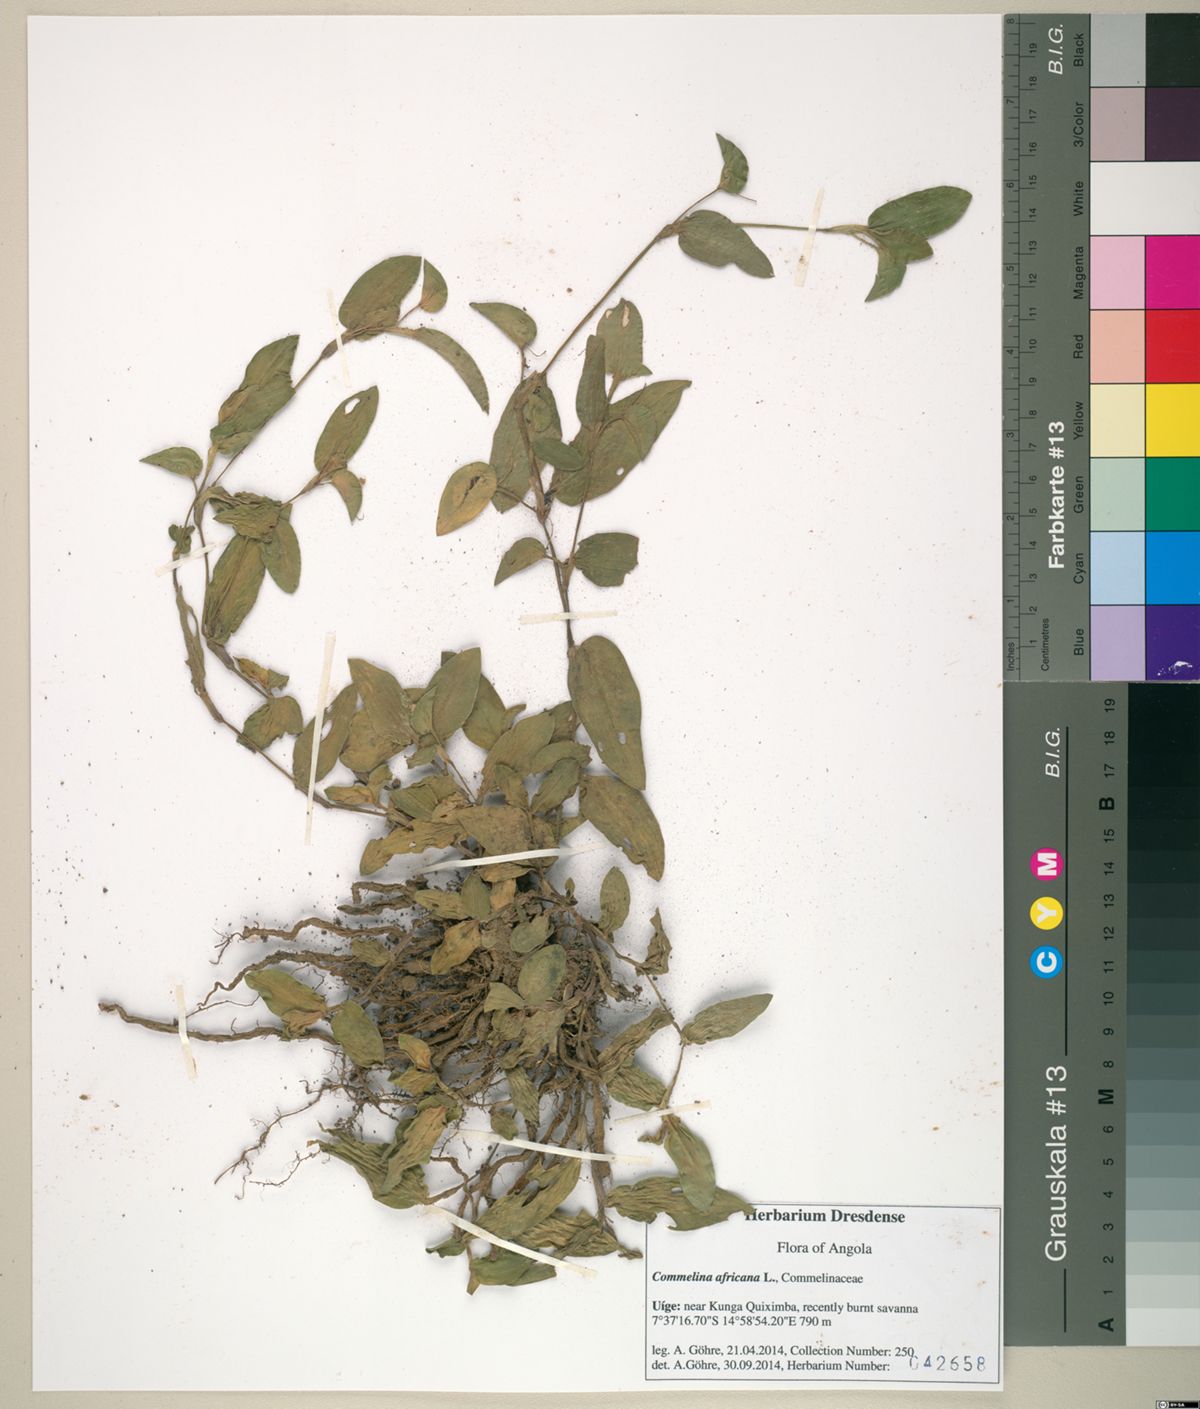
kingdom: Plantae
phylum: Tracheophyta
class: Liliopsida
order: Commelinales
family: Commelinaceae
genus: Commelina
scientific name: Commelina africana
